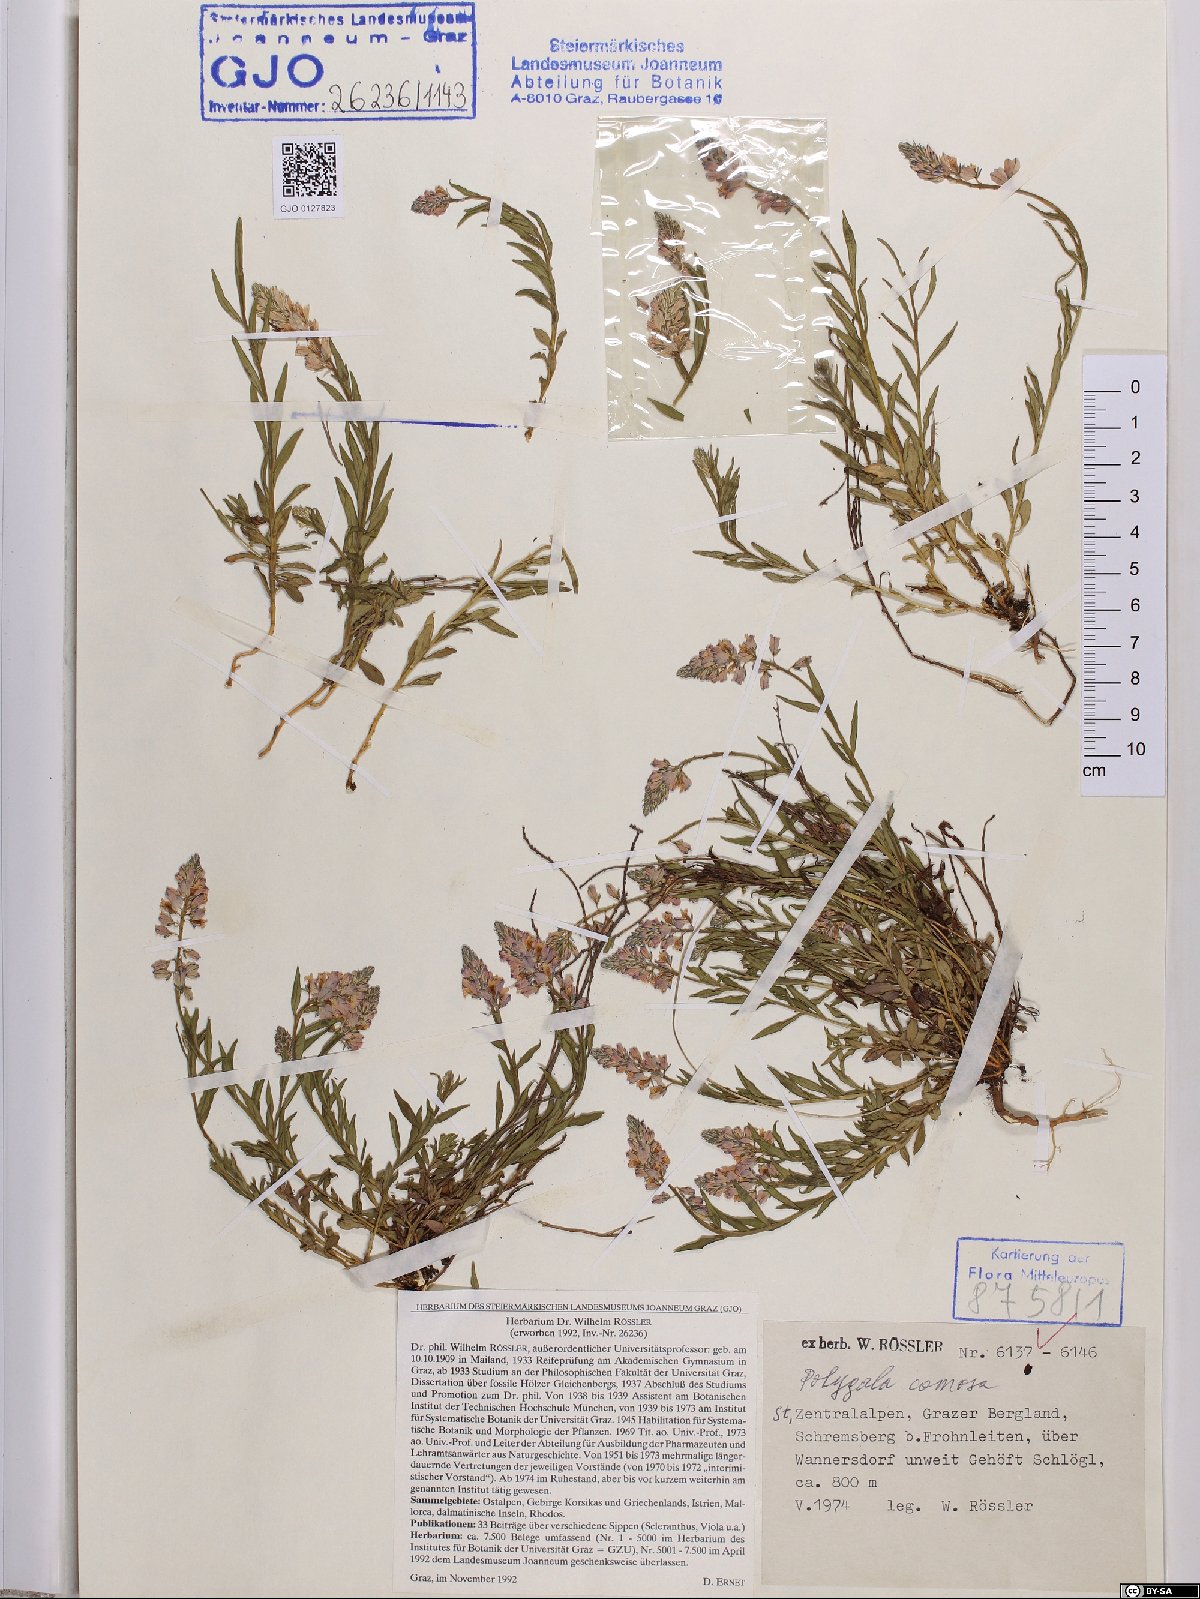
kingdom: Plantae
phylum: Tracheophyta
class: Magnoliopsida
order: Fabales
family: Polygalaceae
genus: Polygala
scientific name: Polygala comosa
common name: Tufted milkwort
